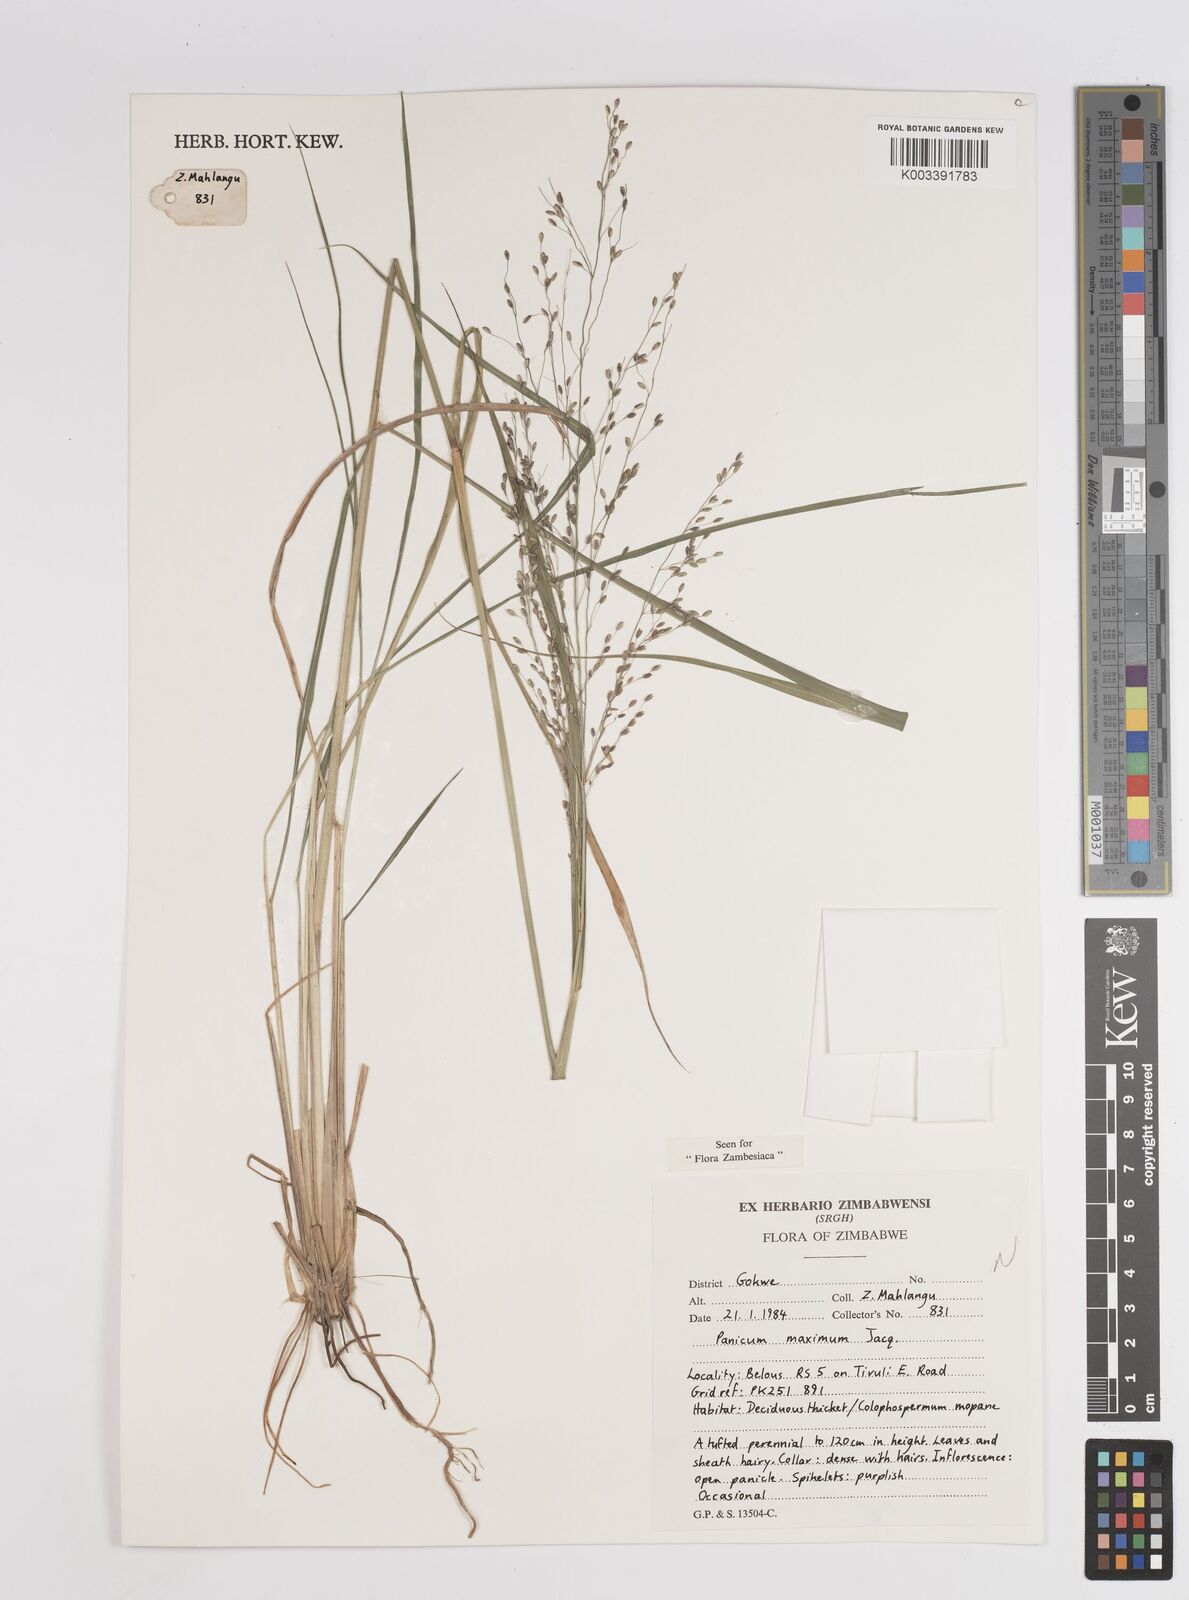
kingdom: Plantae
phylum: Tracheophyta
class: Liliopsida
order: Poales
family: Poaceae
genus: Megathyrsus
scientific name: Megathyrsus maximus
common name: Guineagrass
